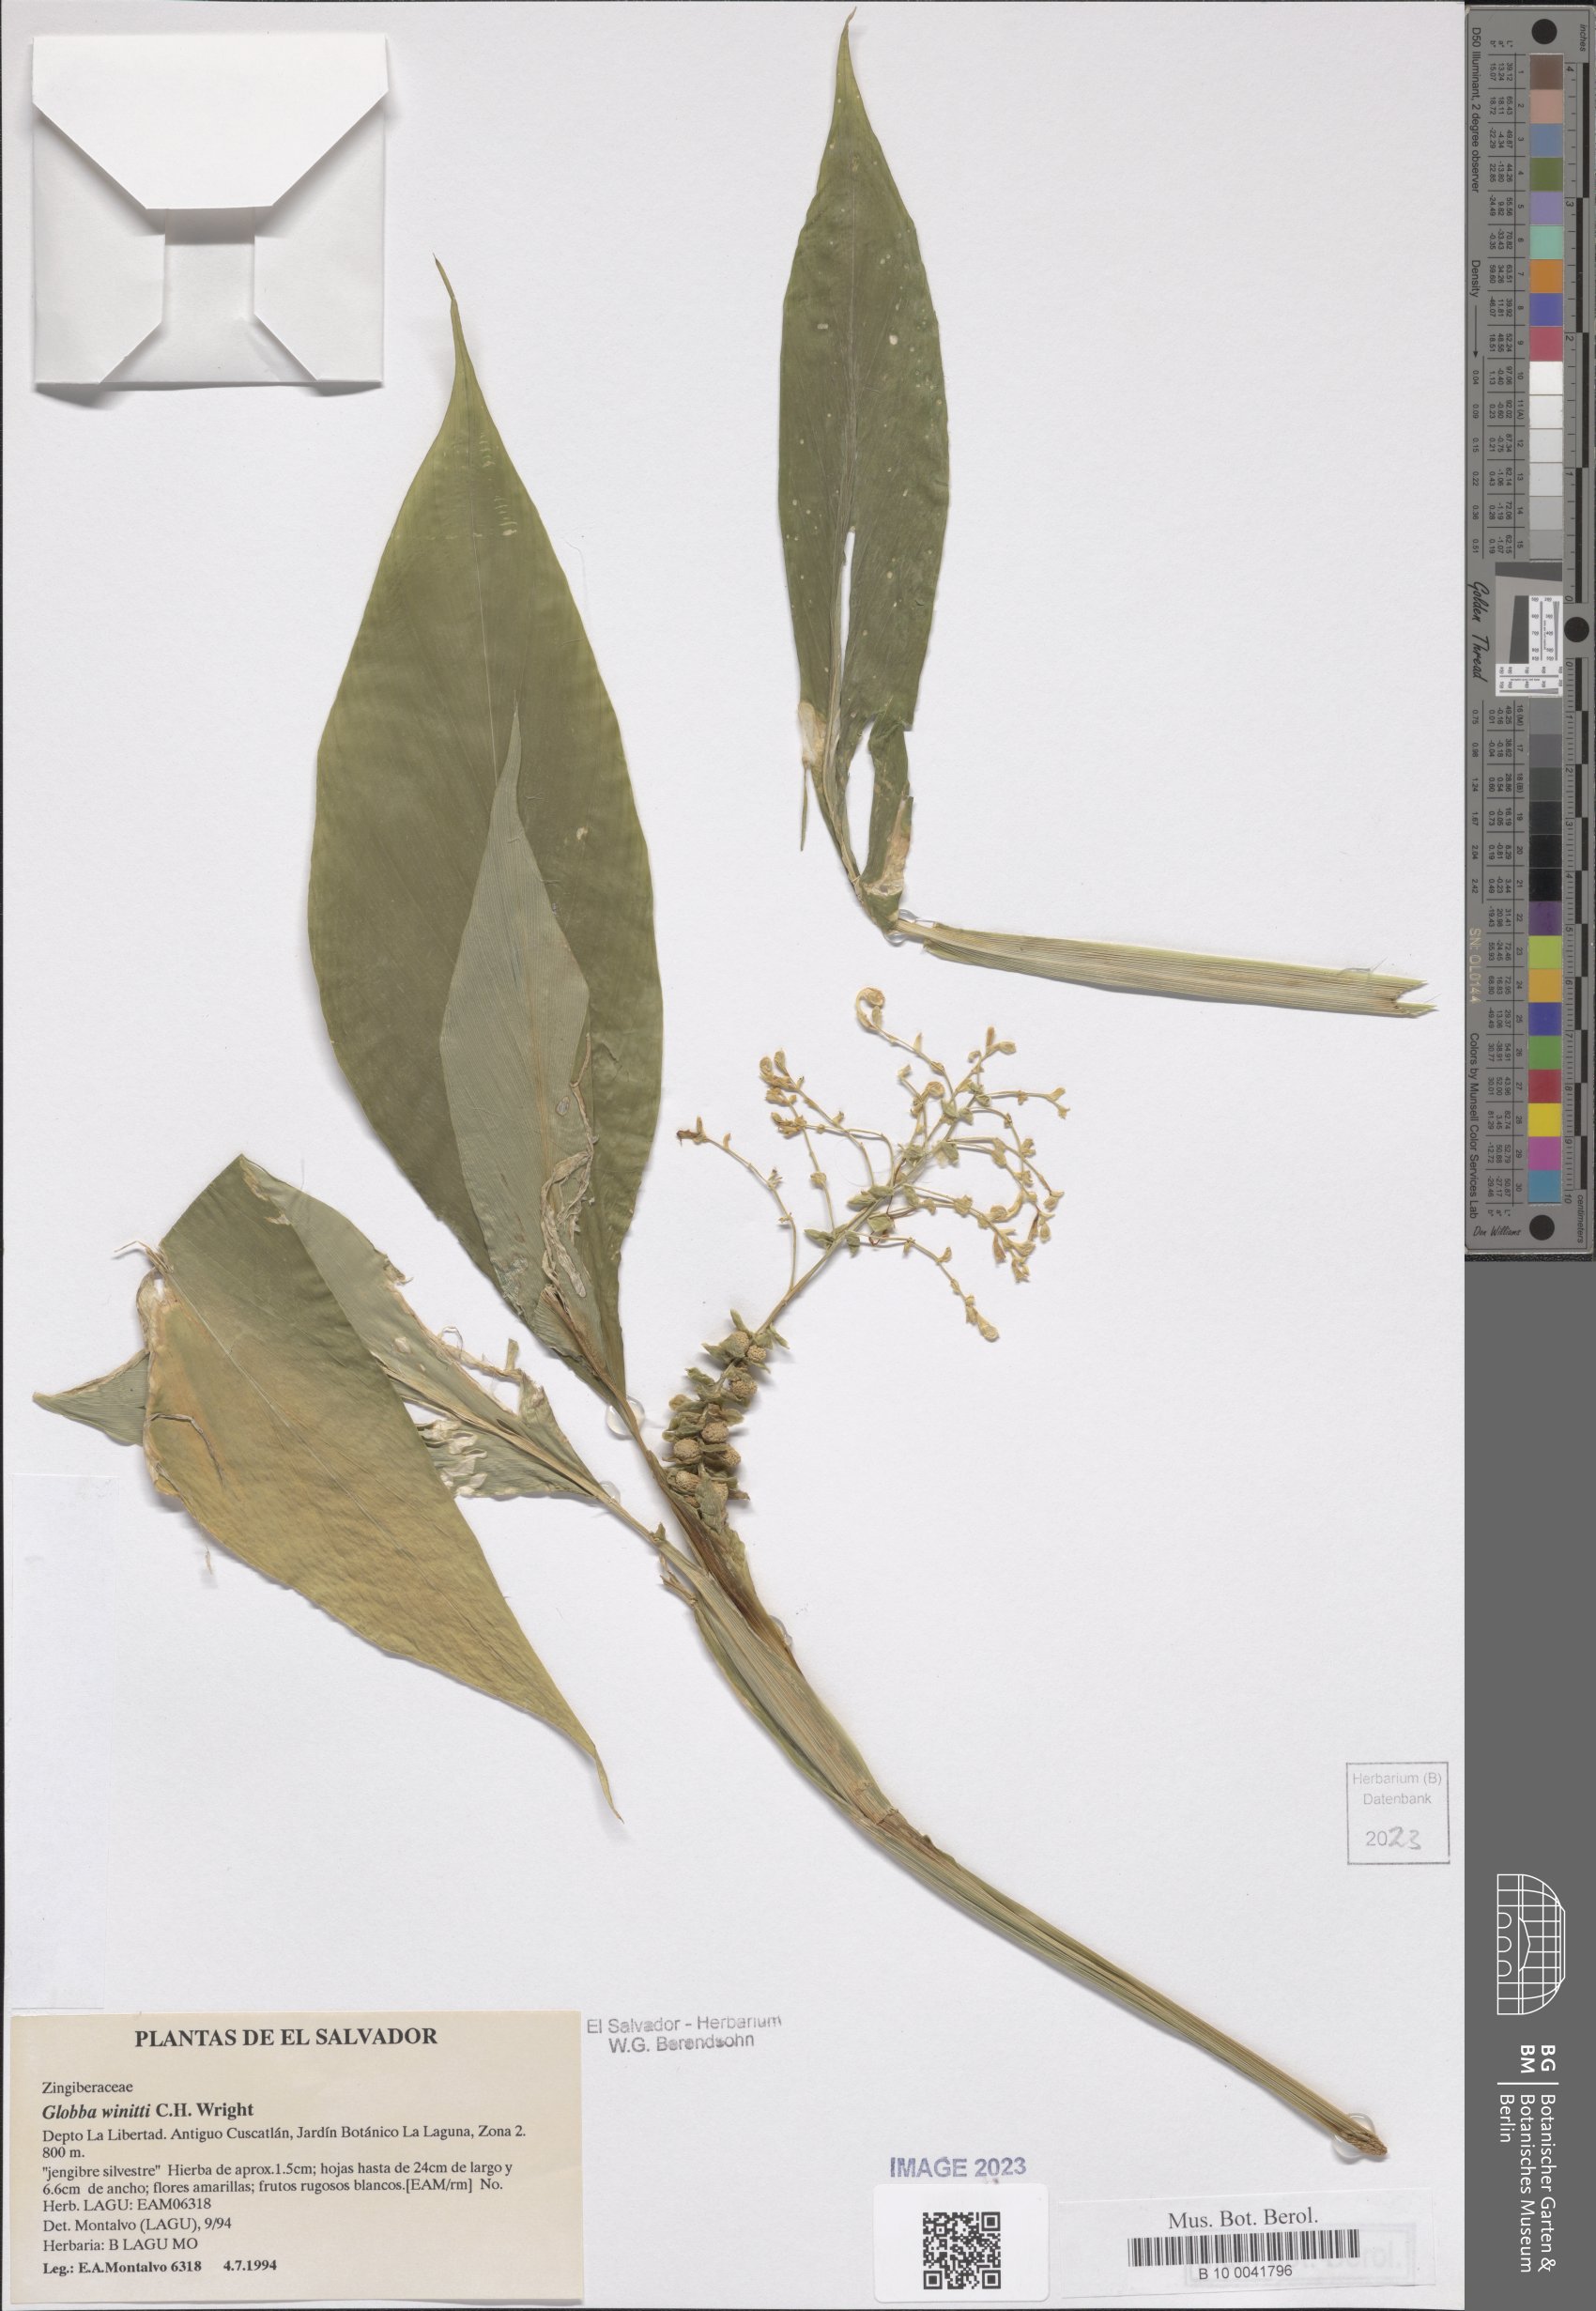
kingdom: Plantae
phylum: Tracheophyta
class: Liliopsida
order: Zingiberales
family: Zingiberaceae
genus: Globba
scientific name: Globba winitii
